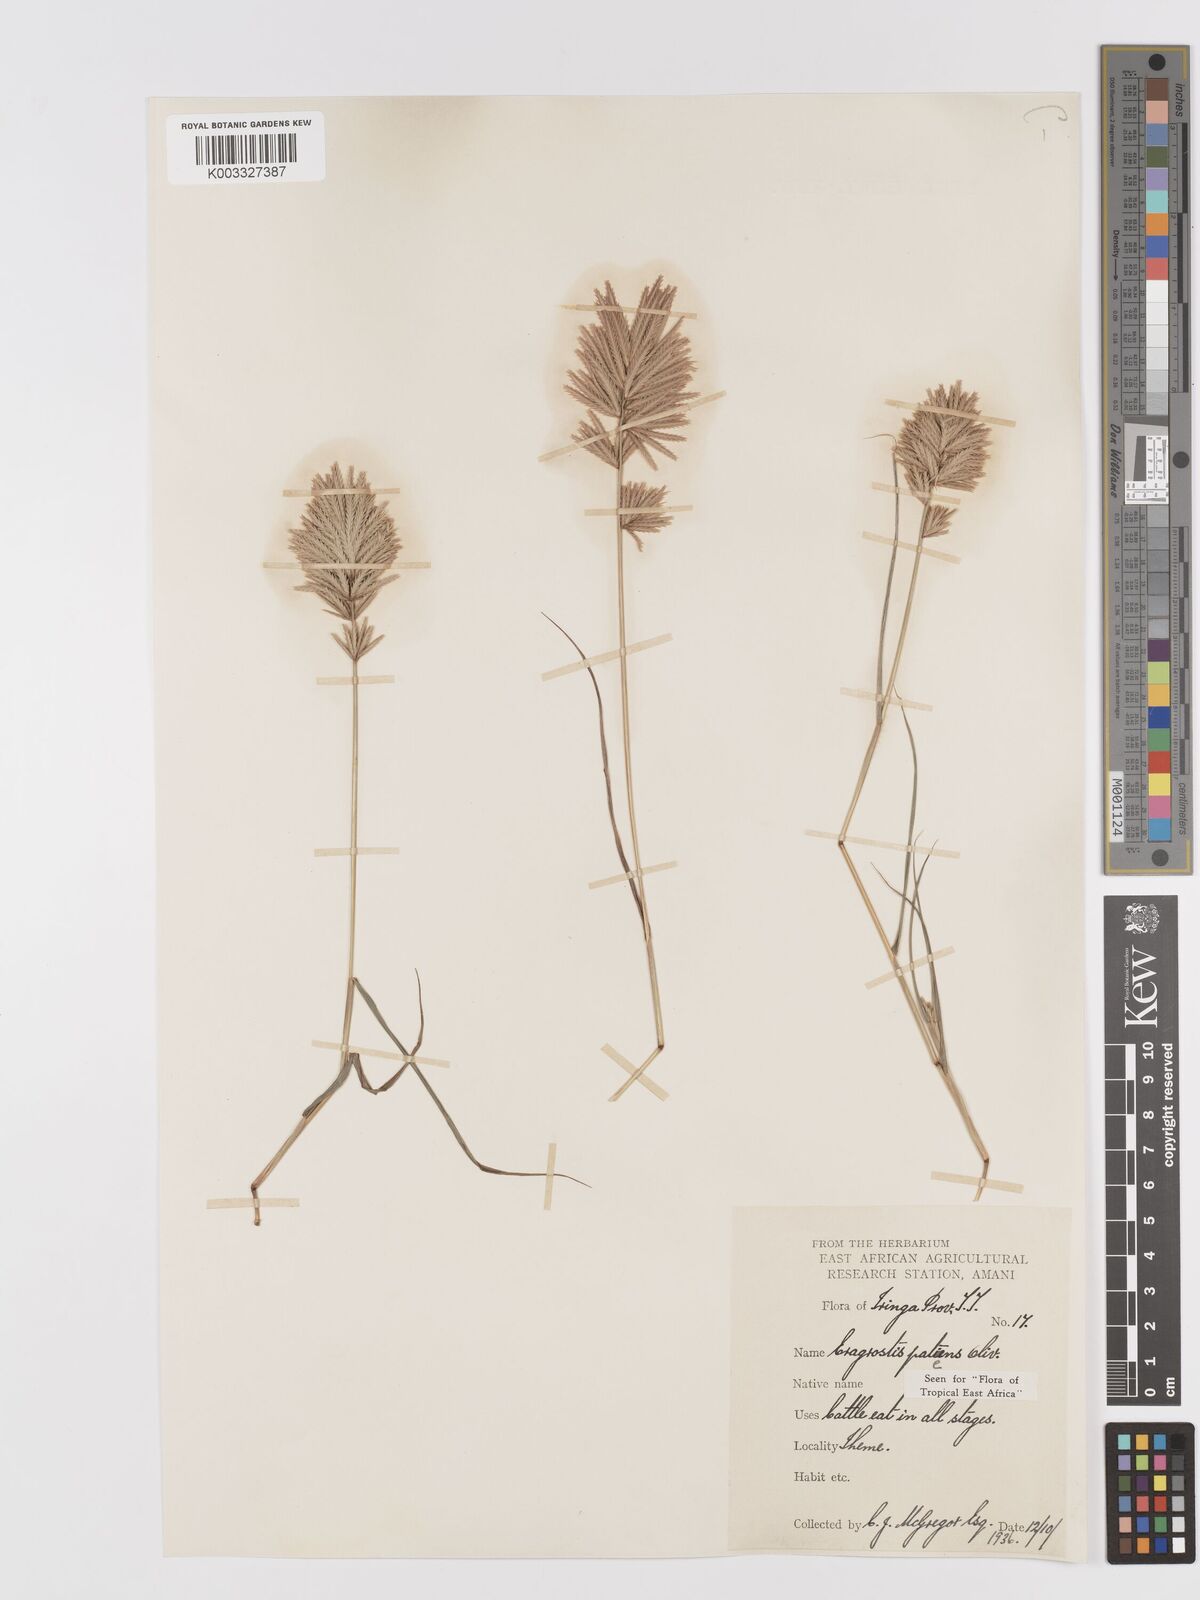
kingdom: Plantae
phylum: Tracheophyta
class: Liliopsida
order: Poales
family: Poaceae
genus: Eragrostis
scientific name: Eragrostis patens
